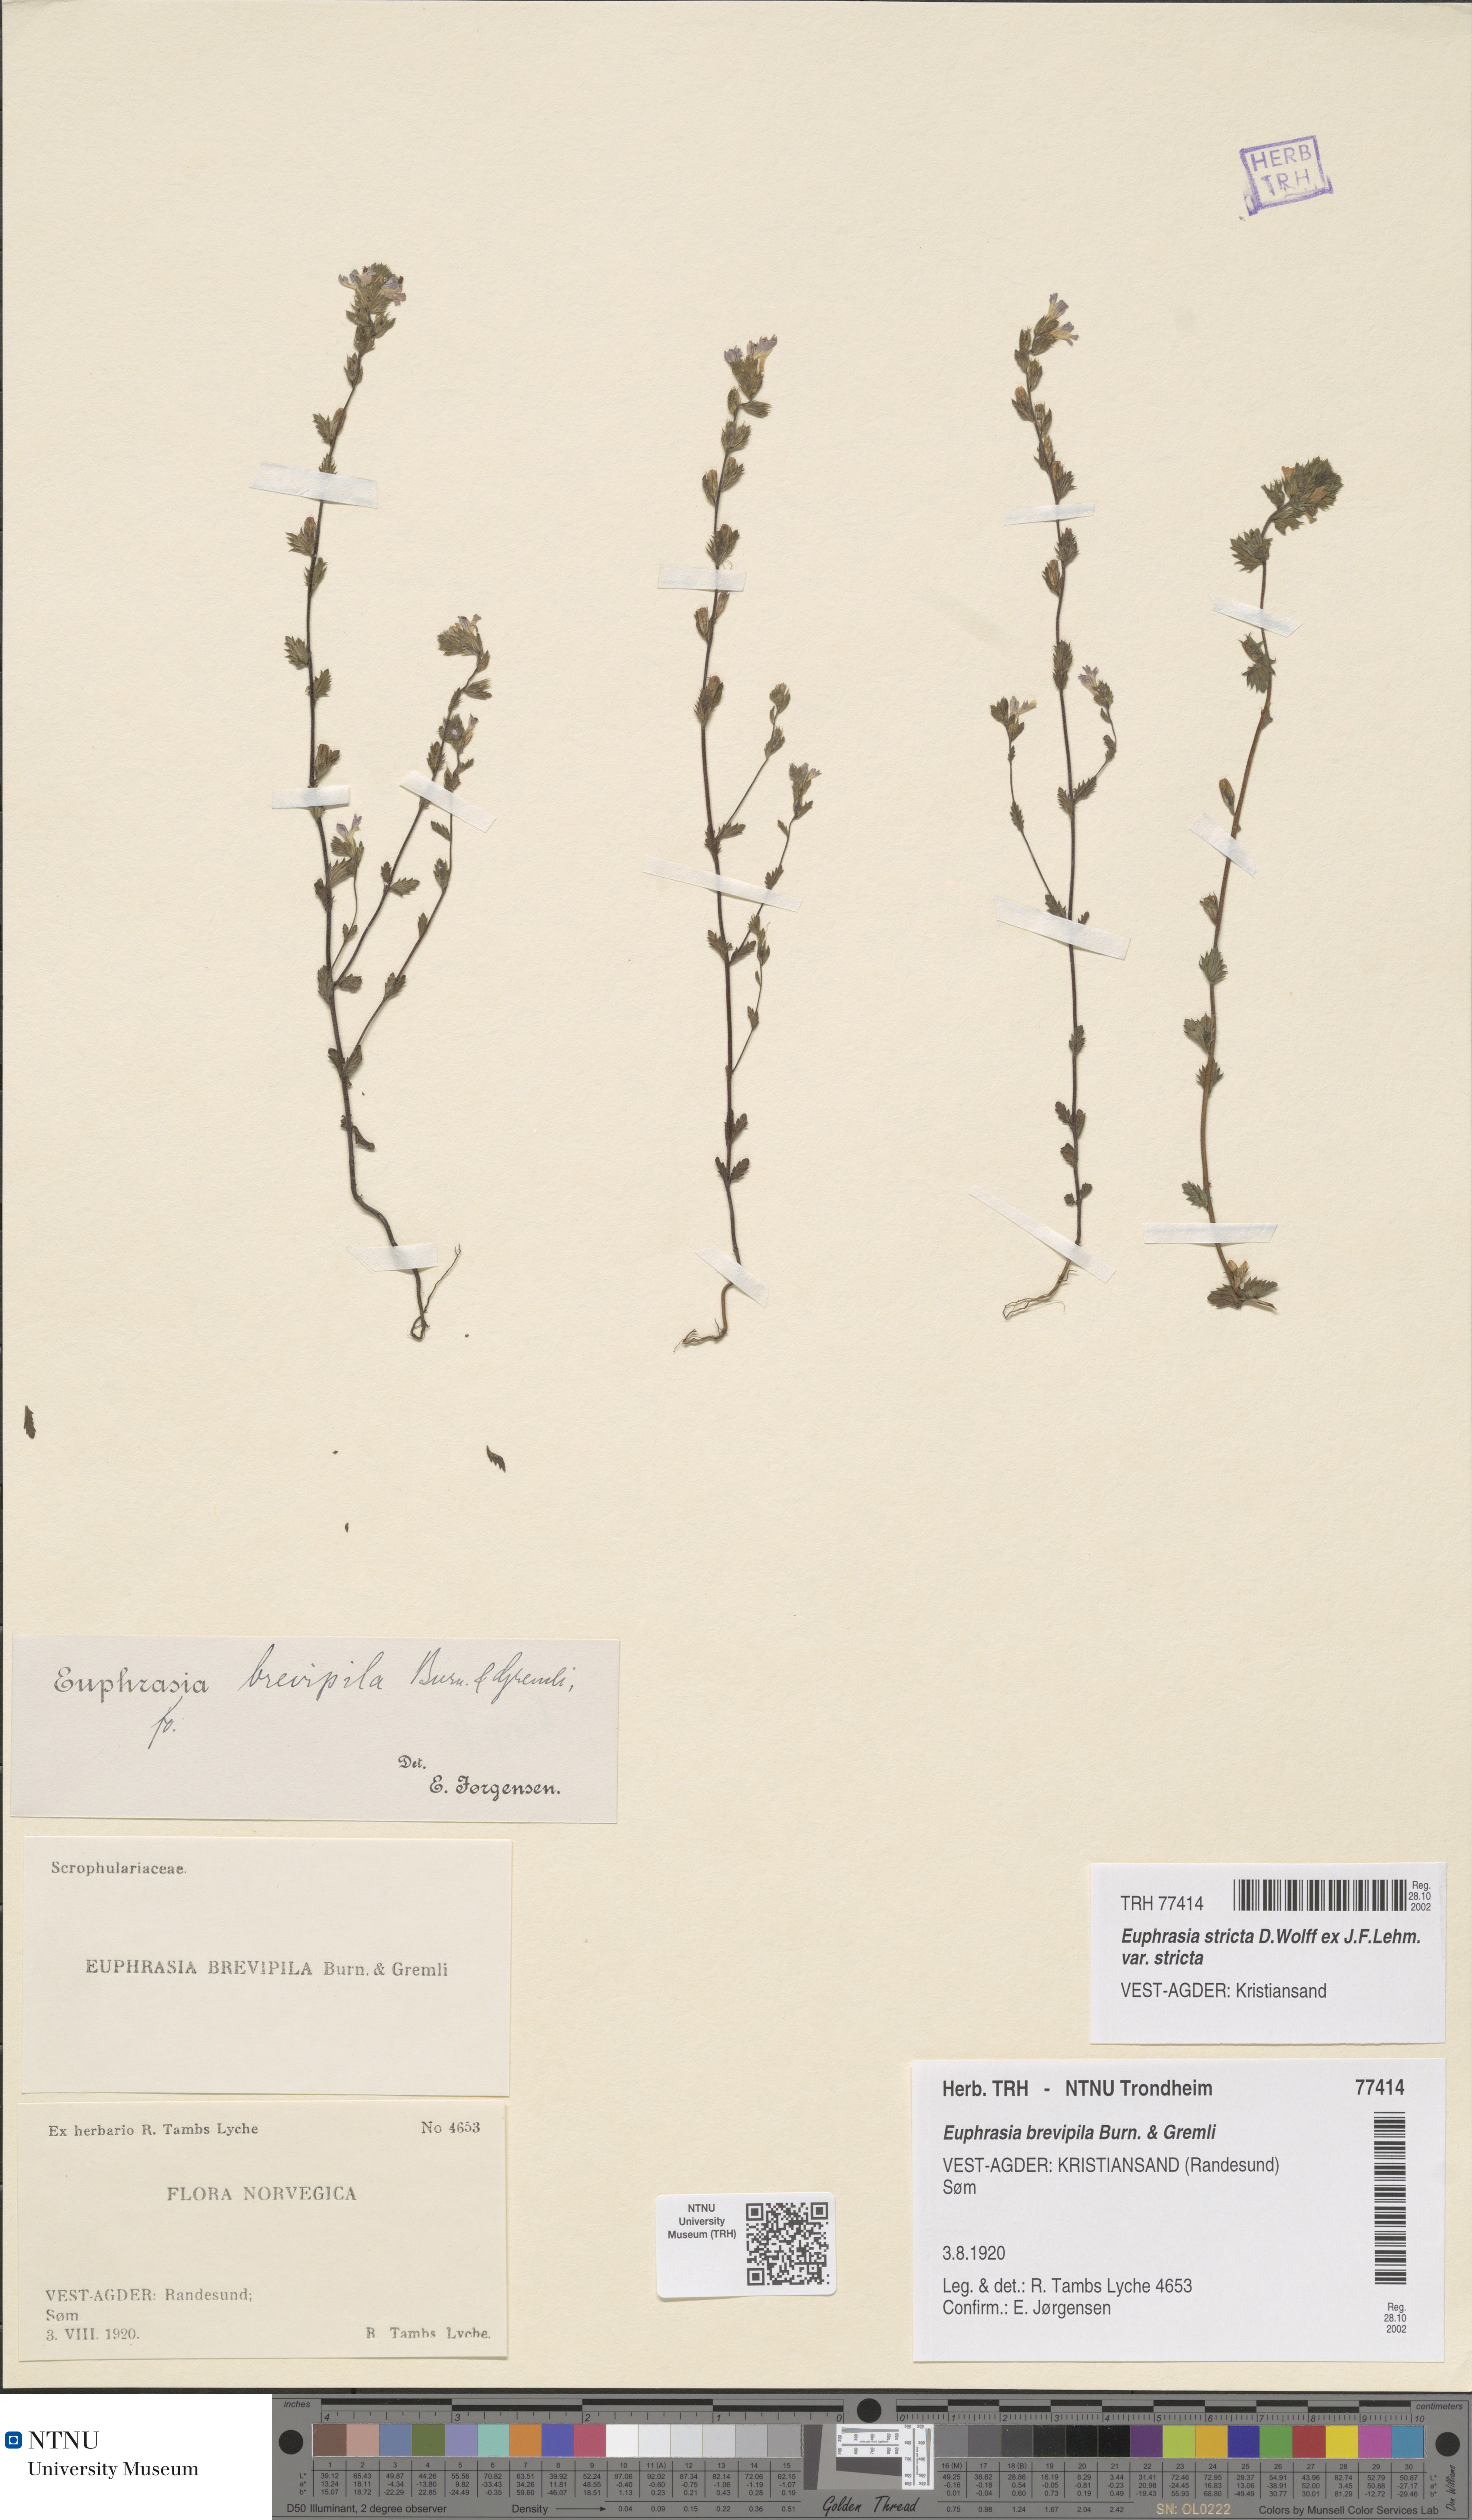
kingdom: Plantae
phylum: Tracheophyta
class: Magnoliopsida
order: Lamiales
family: Orobanchaceae
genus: Euphrasia
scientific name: Euphrasia vernalis
